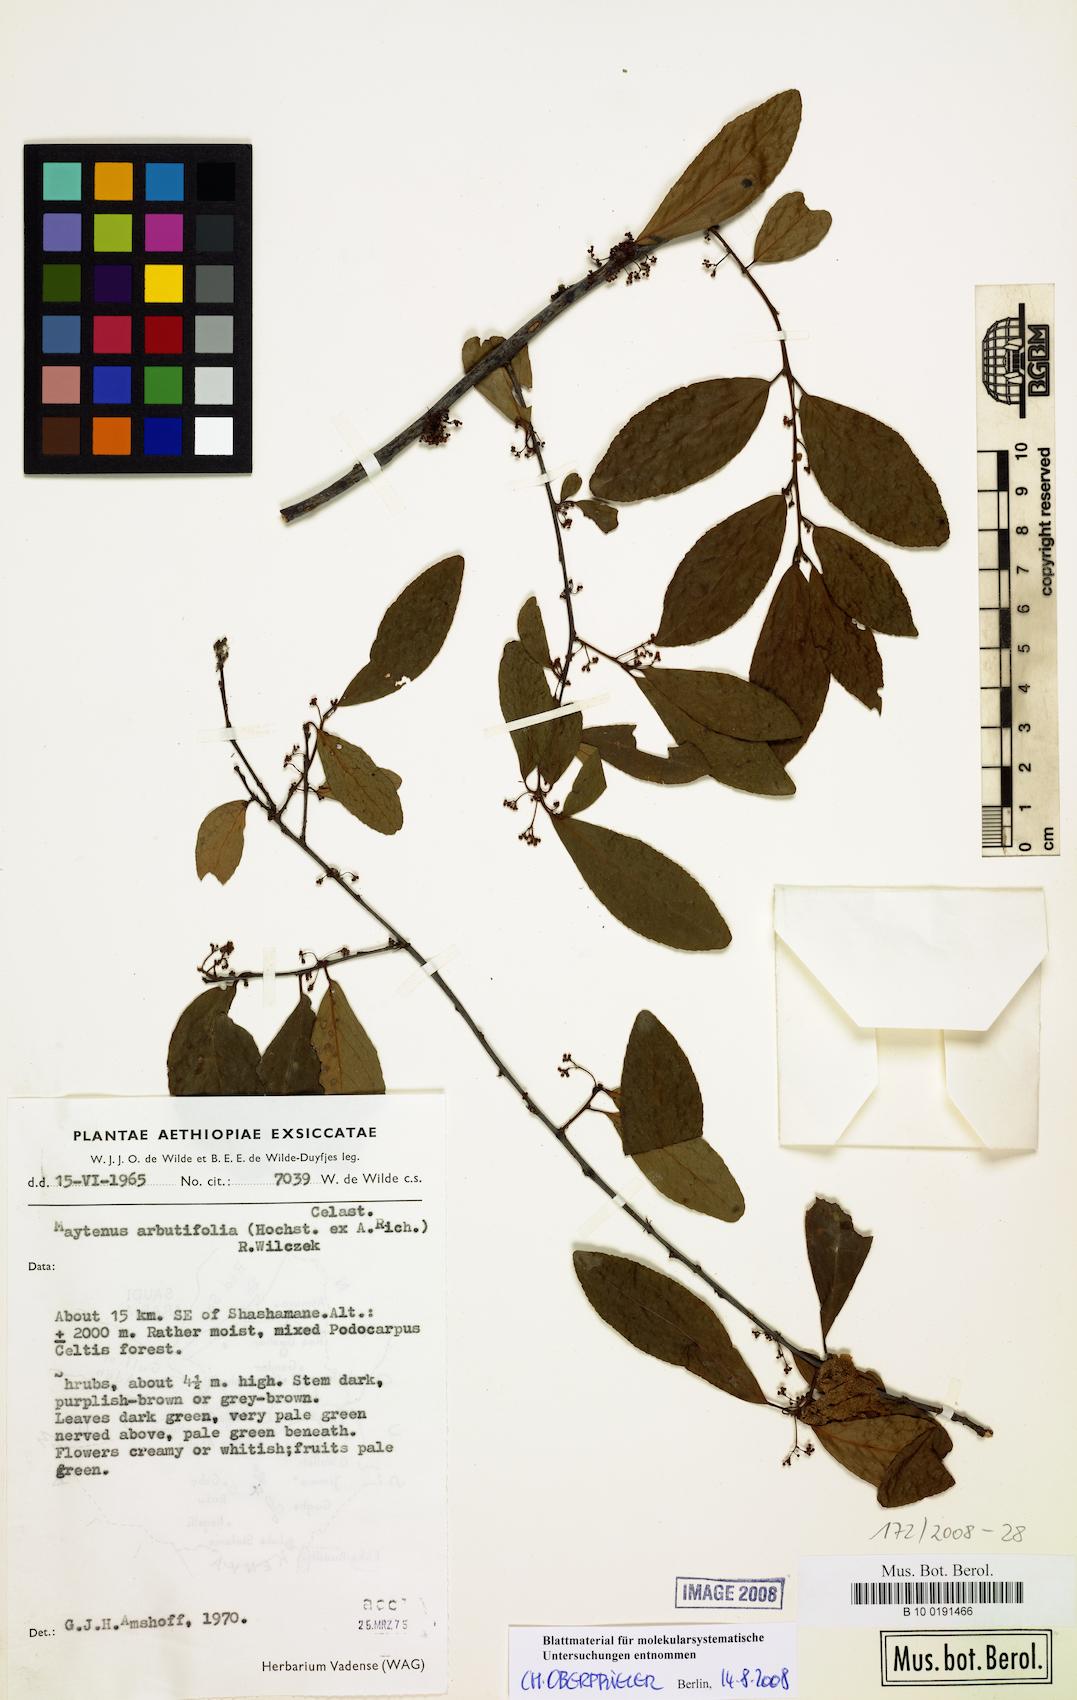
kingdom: Plantae
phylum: Tracheophyta
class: Magnoliopsida
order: Celastrales
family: Celastraceae
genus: Gymnosporia
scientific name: Gymnosporia arbutifolia
